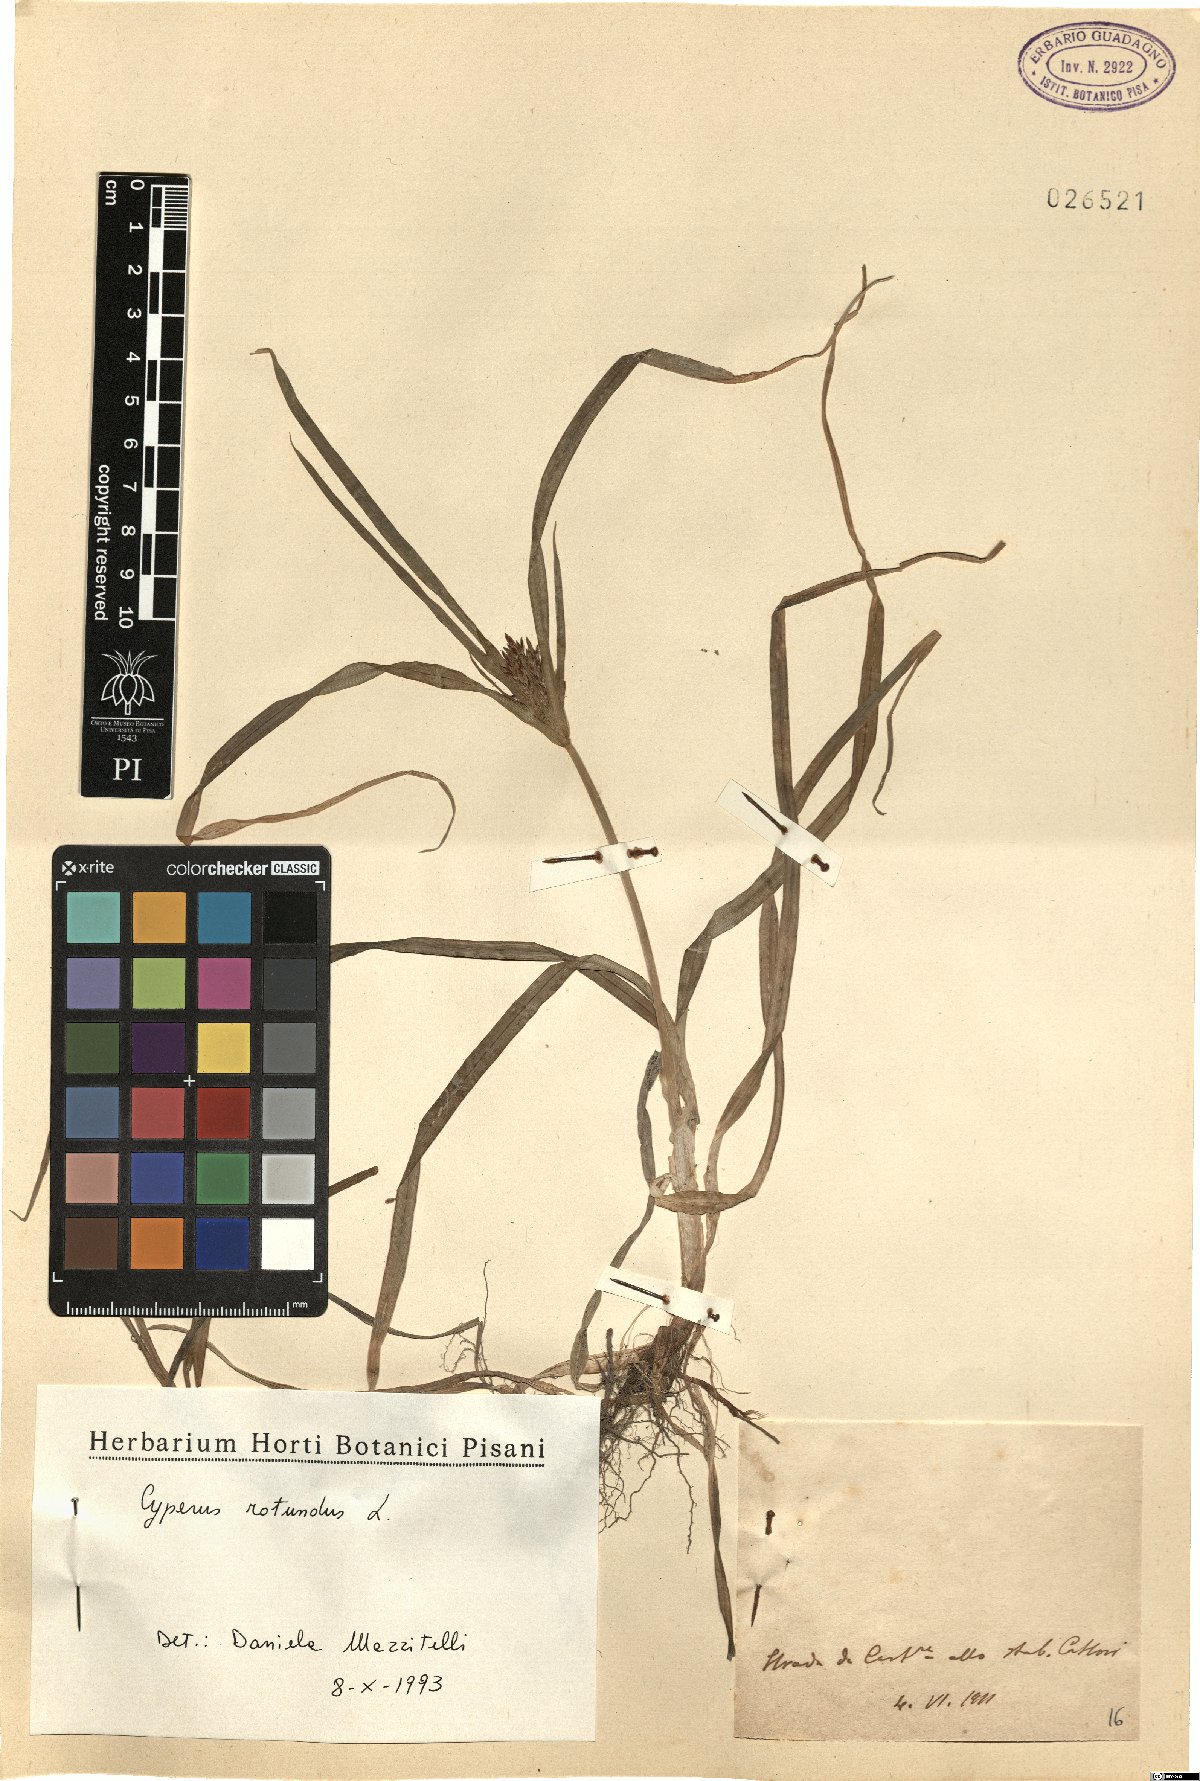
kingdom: Plantae
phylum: Tracheophyta
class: Liliopsida
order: Poales
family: Cyperaceae
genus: Cyperus
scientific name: Cyperus rotundus
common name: Nutgrass
